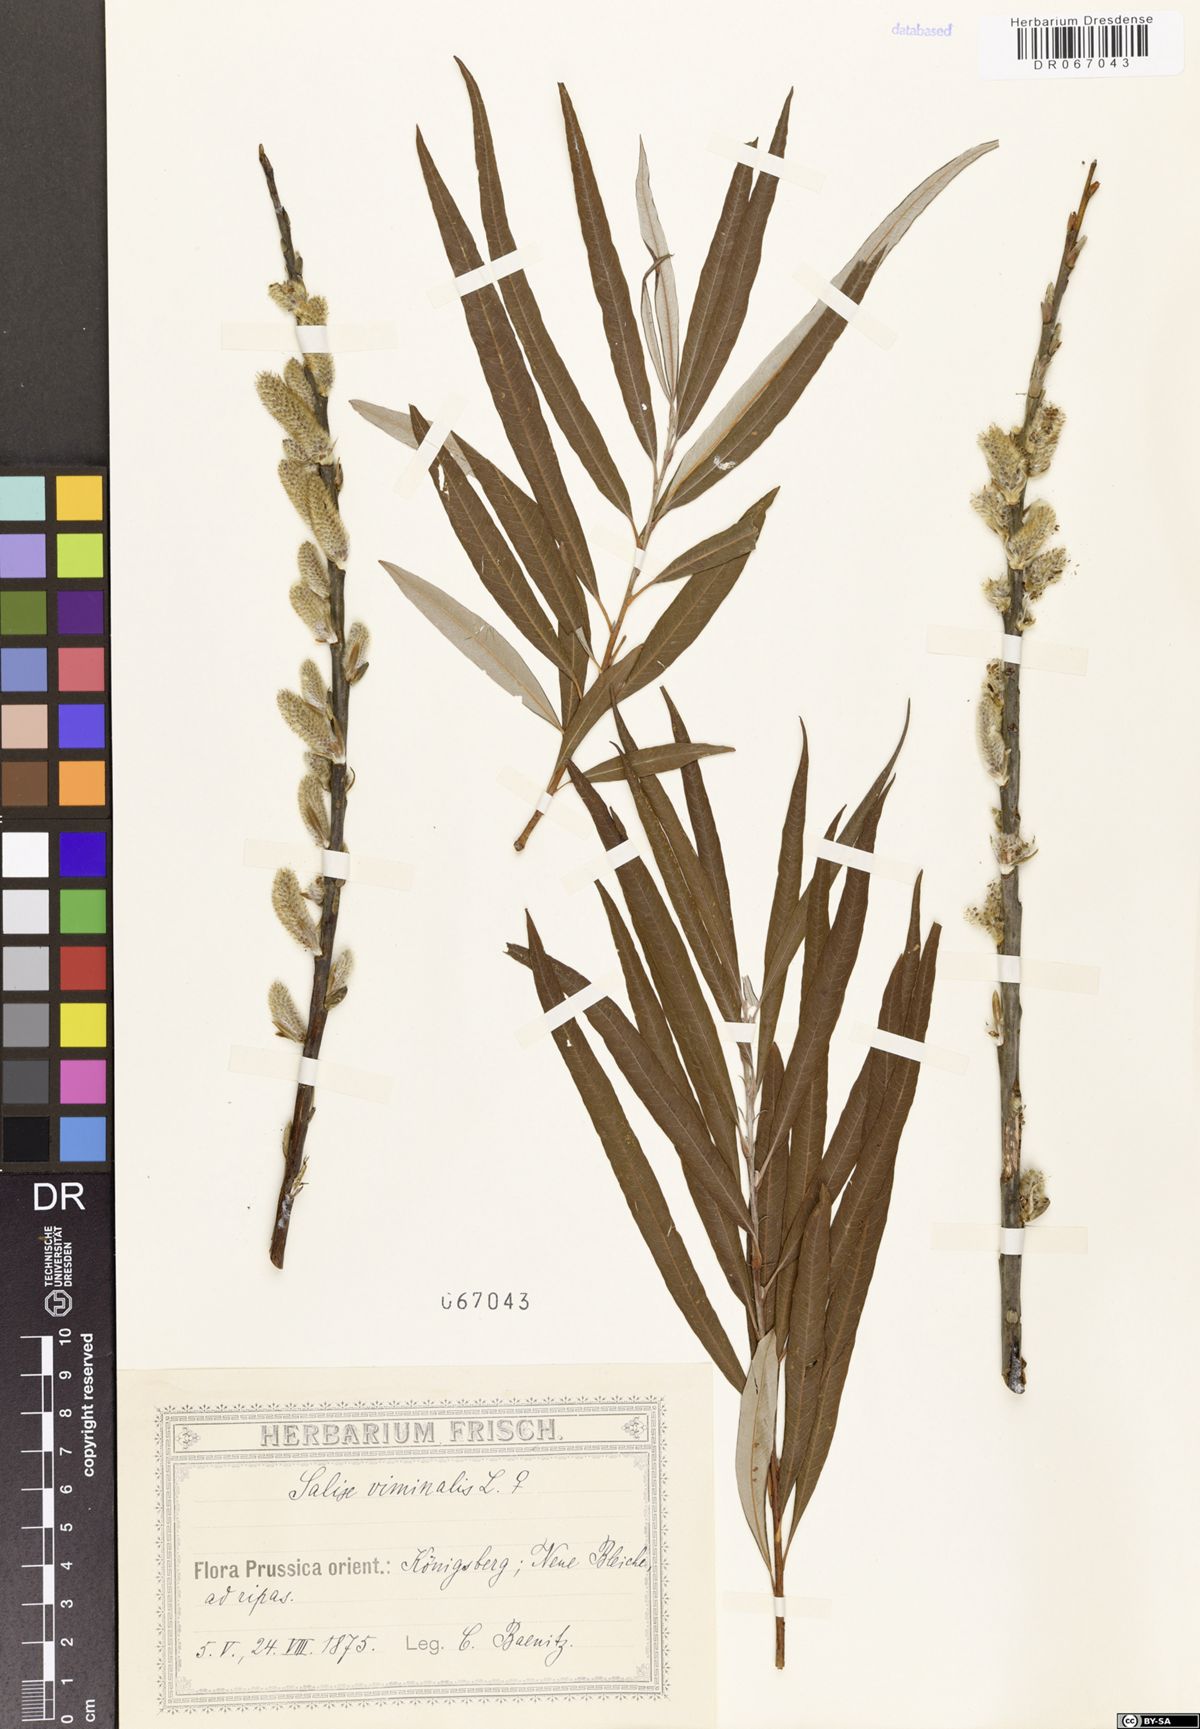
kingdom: Plantae
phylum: Tracheophyta
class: Magnoliopsida
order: Malpighiales
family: Salicaceae
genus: Salix
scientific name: Salix viminalis
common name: Osier
